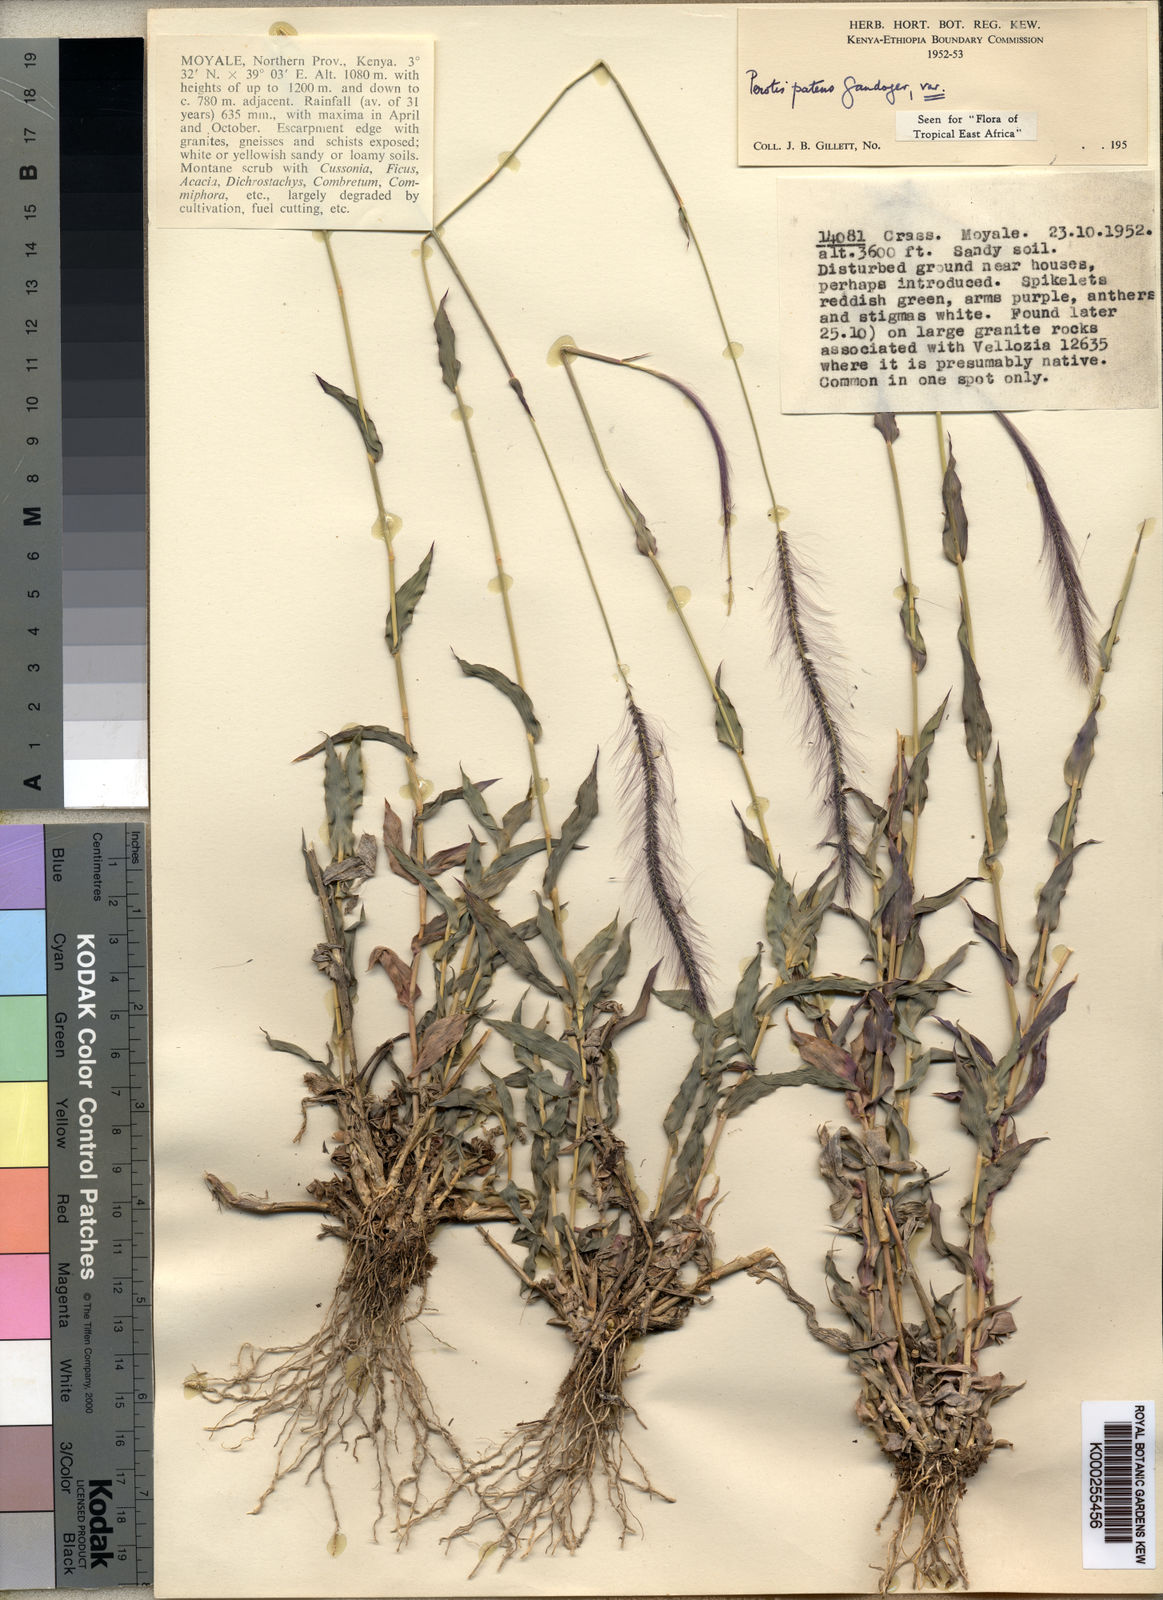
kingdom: Plantae
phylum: Tracheophyta
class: Liliopsida
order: Poales
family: Poaceae
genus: Perotis
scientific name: Perotis patens
